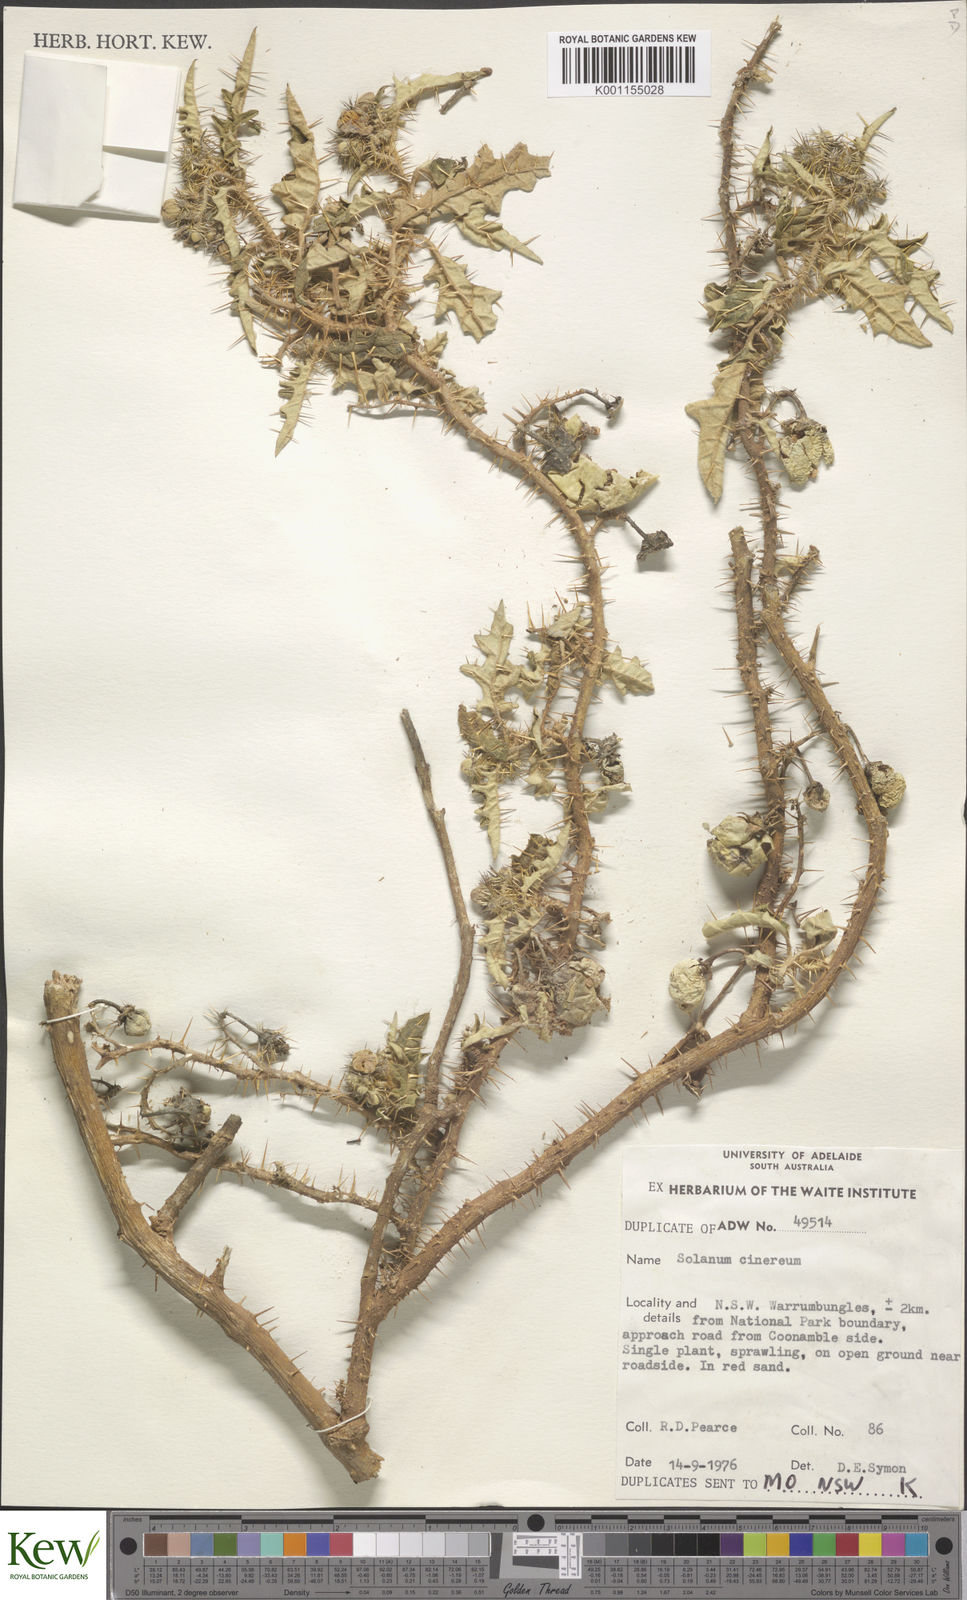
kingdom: Plantae
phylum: Tracheophyta
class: Magnoliopsida
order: Solanales
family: Solanaceae
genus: Solanum
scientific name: Solanum cinereum
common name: Narrawa-bur
